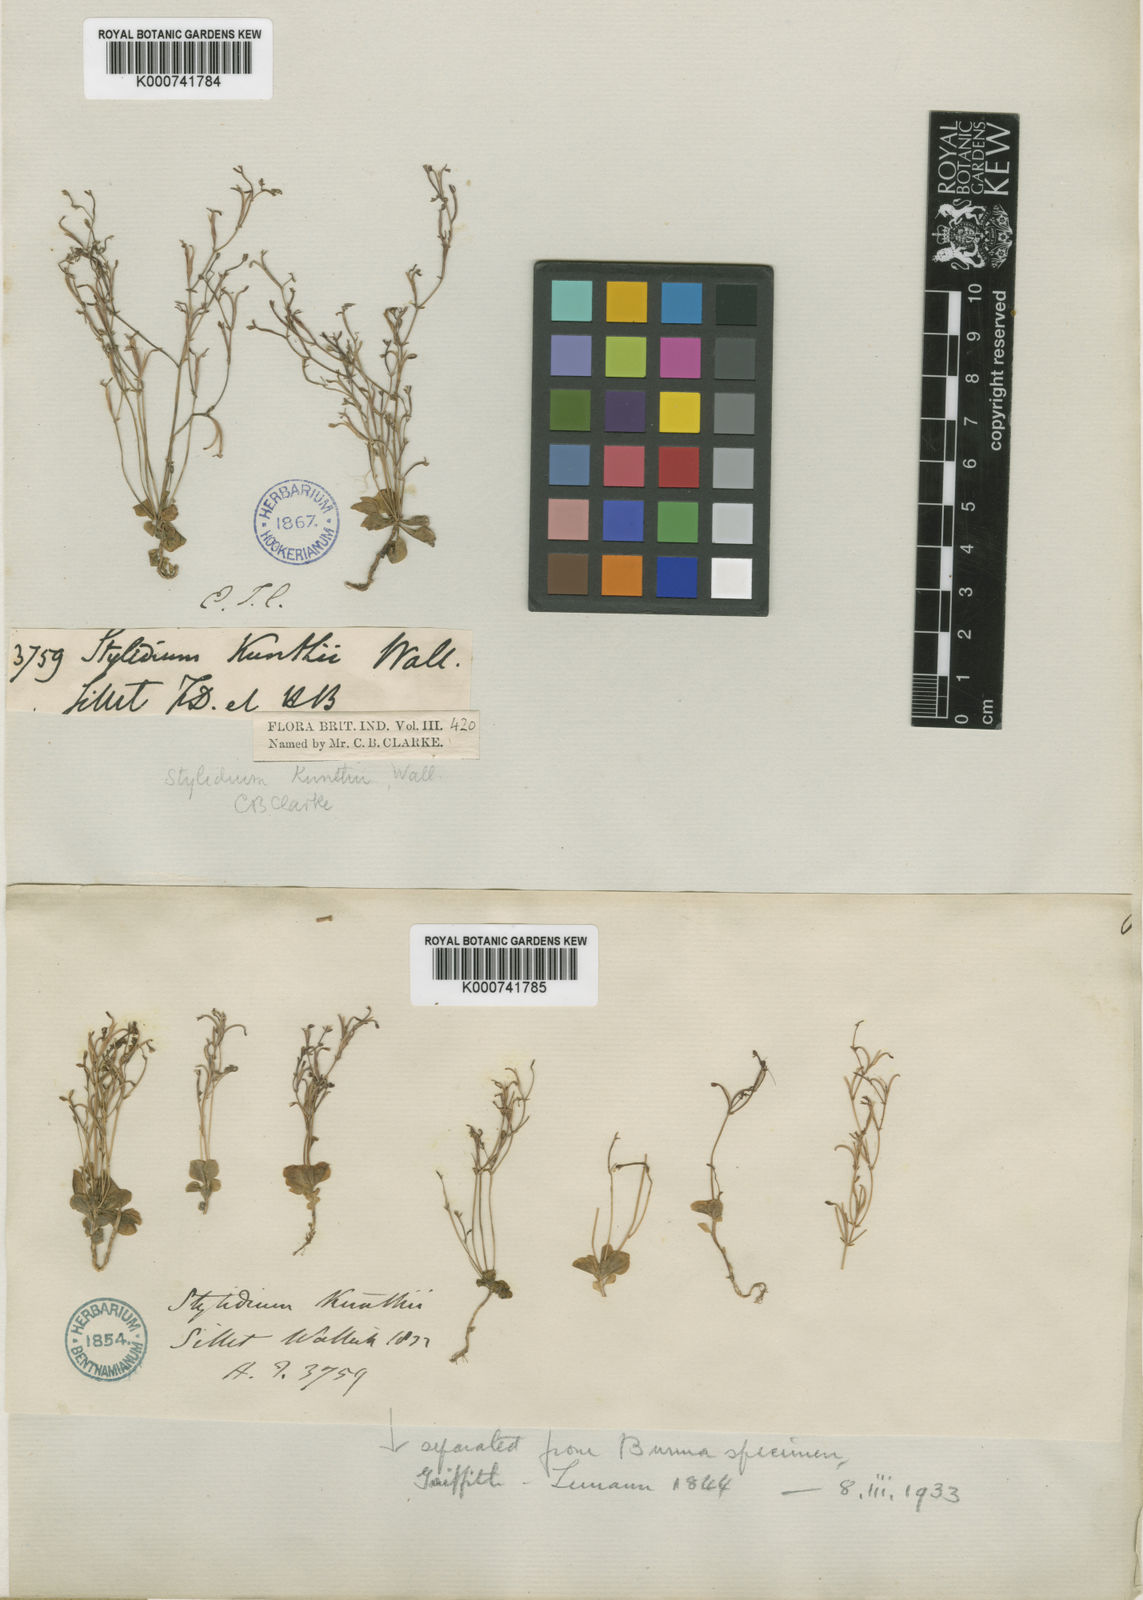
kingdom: Plantae
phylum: Tracheophyta
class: Magnoliopsida
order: Asterales
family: Stylidiaceae
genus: Stylidium
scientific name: Stylidium
